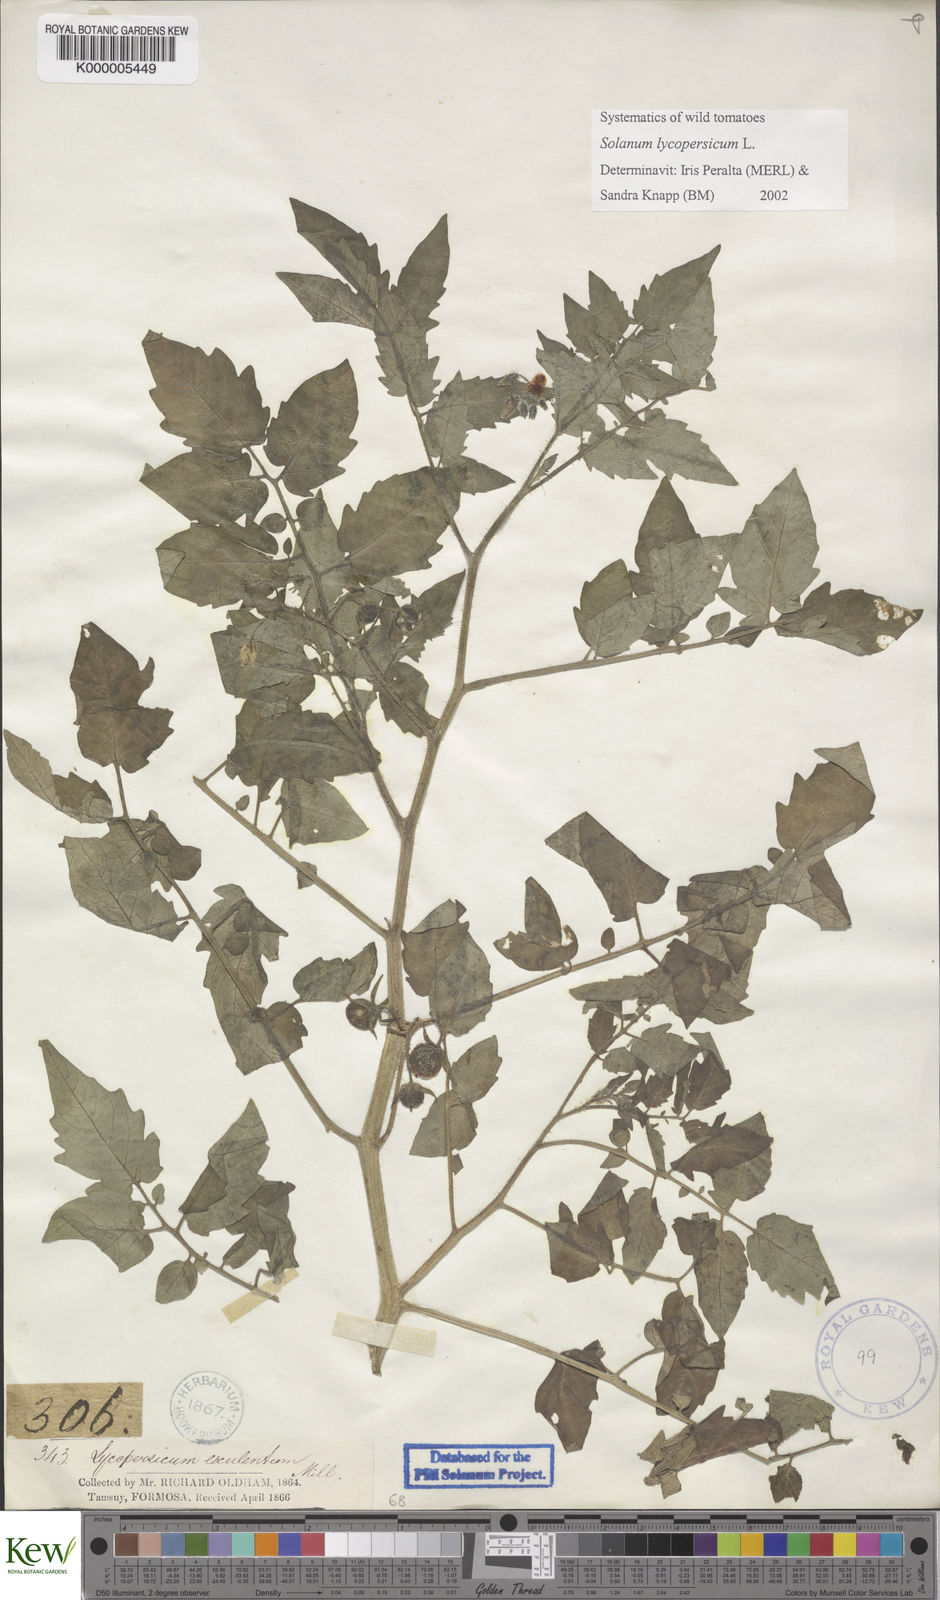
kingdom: Plantae
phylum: Tracheophyta
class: Magnoliopsida
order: Solanales
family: Solanaceae
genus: Solanum
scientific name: Solanum lycopersicum
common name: Garden tomato
